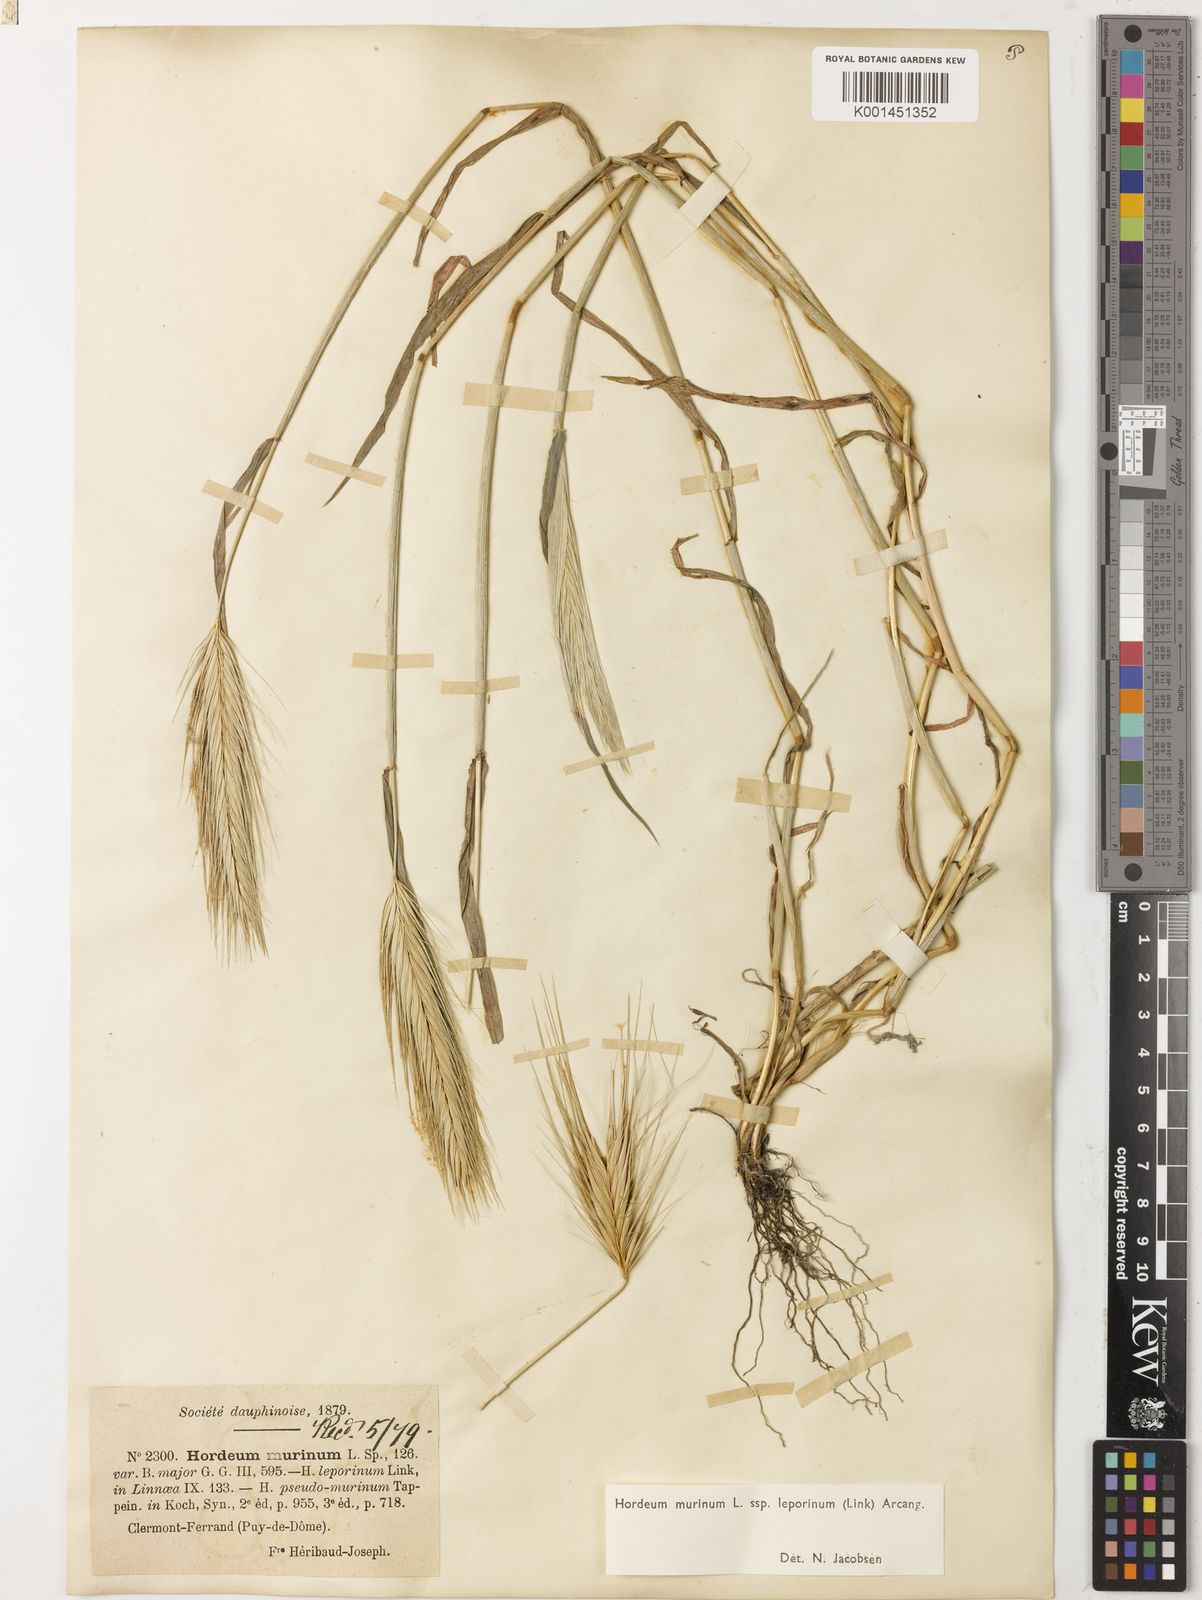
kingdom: Plantae
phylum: Tracheophyta
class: Liliopsida
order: Poales
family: Poaceae
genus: Hordeum
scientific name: Hordeum murinum
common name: Wall barley
